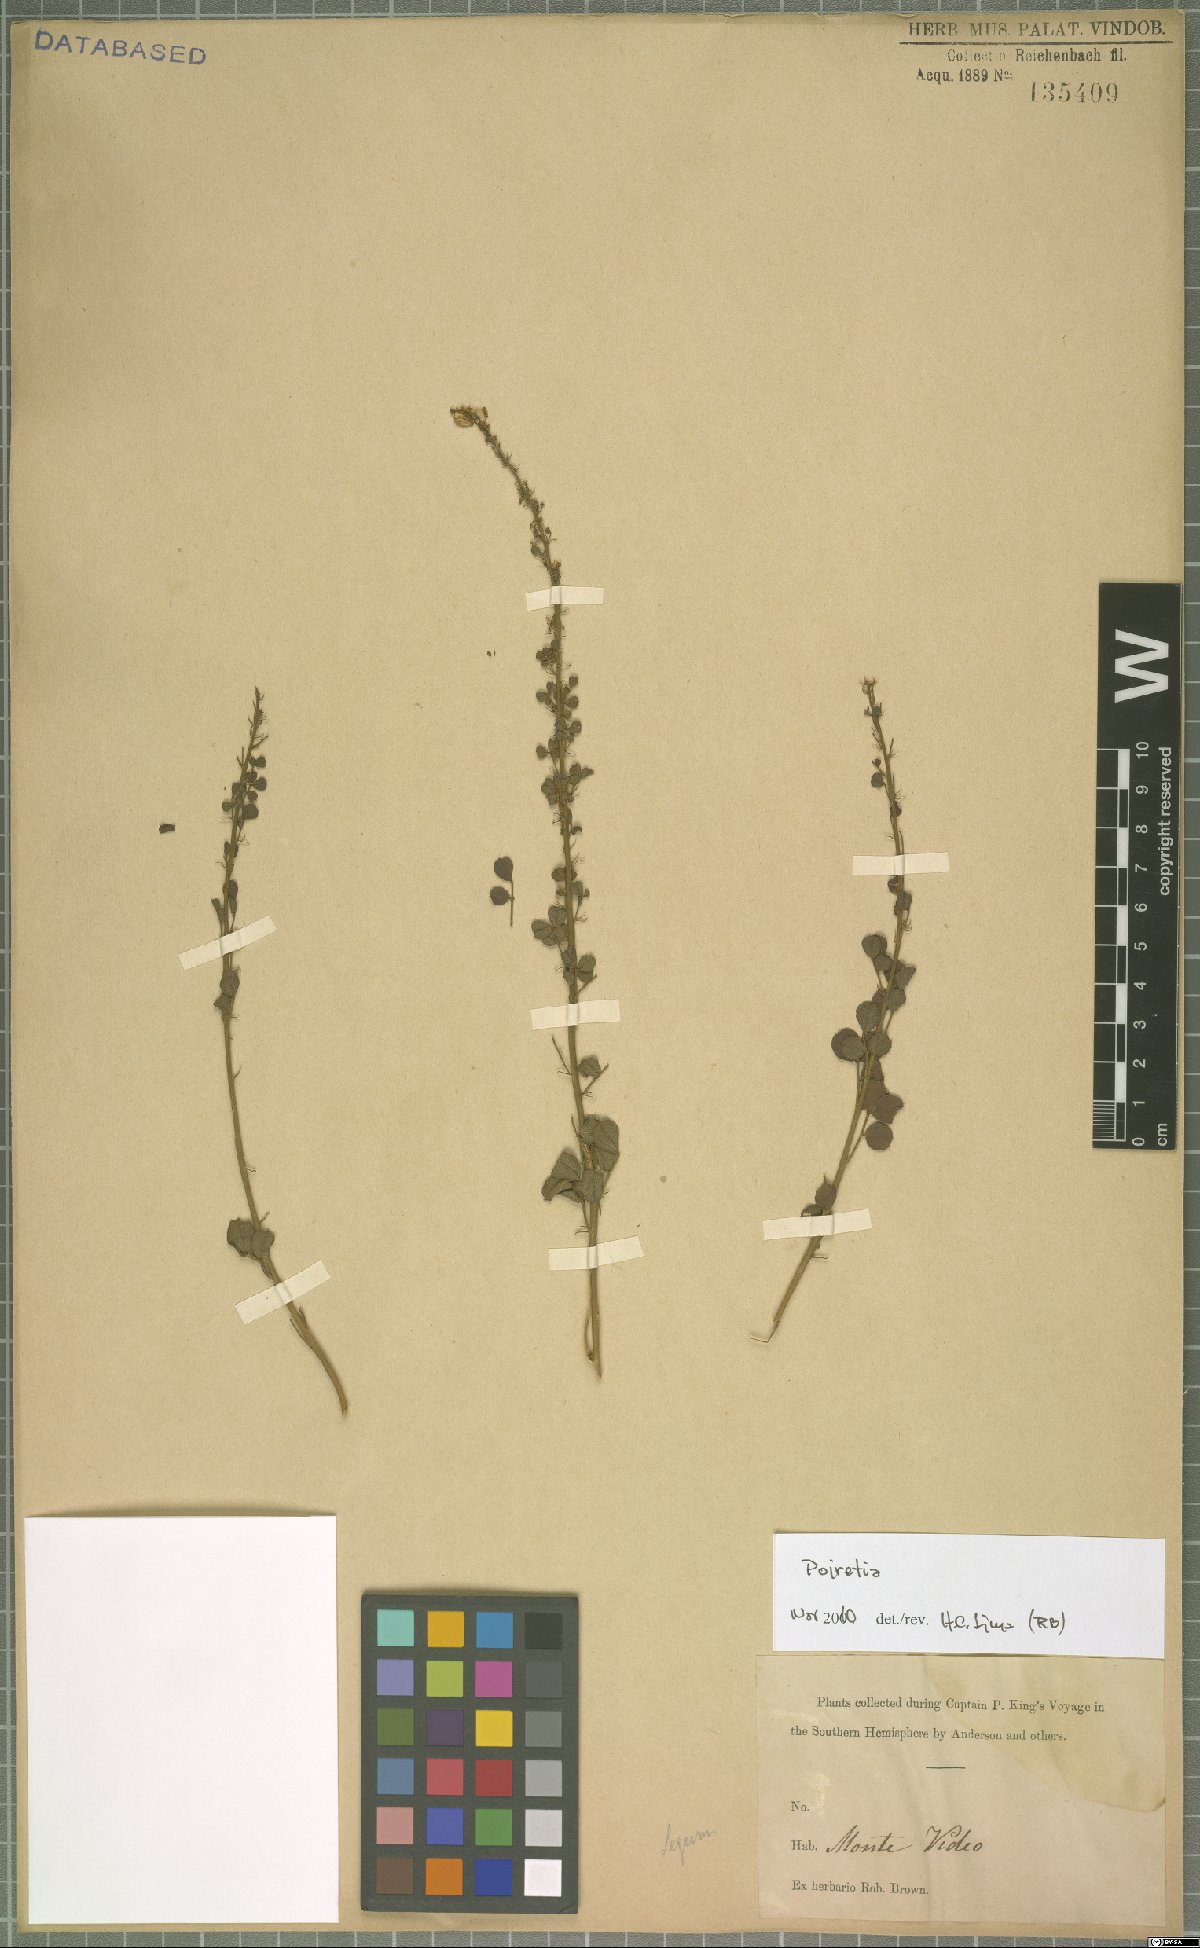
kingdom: Plantae
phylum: Tracheophyta
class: Magnoliopsida
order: Fabales
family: Fabaceae
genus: Poiretia
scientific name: Poiretia
